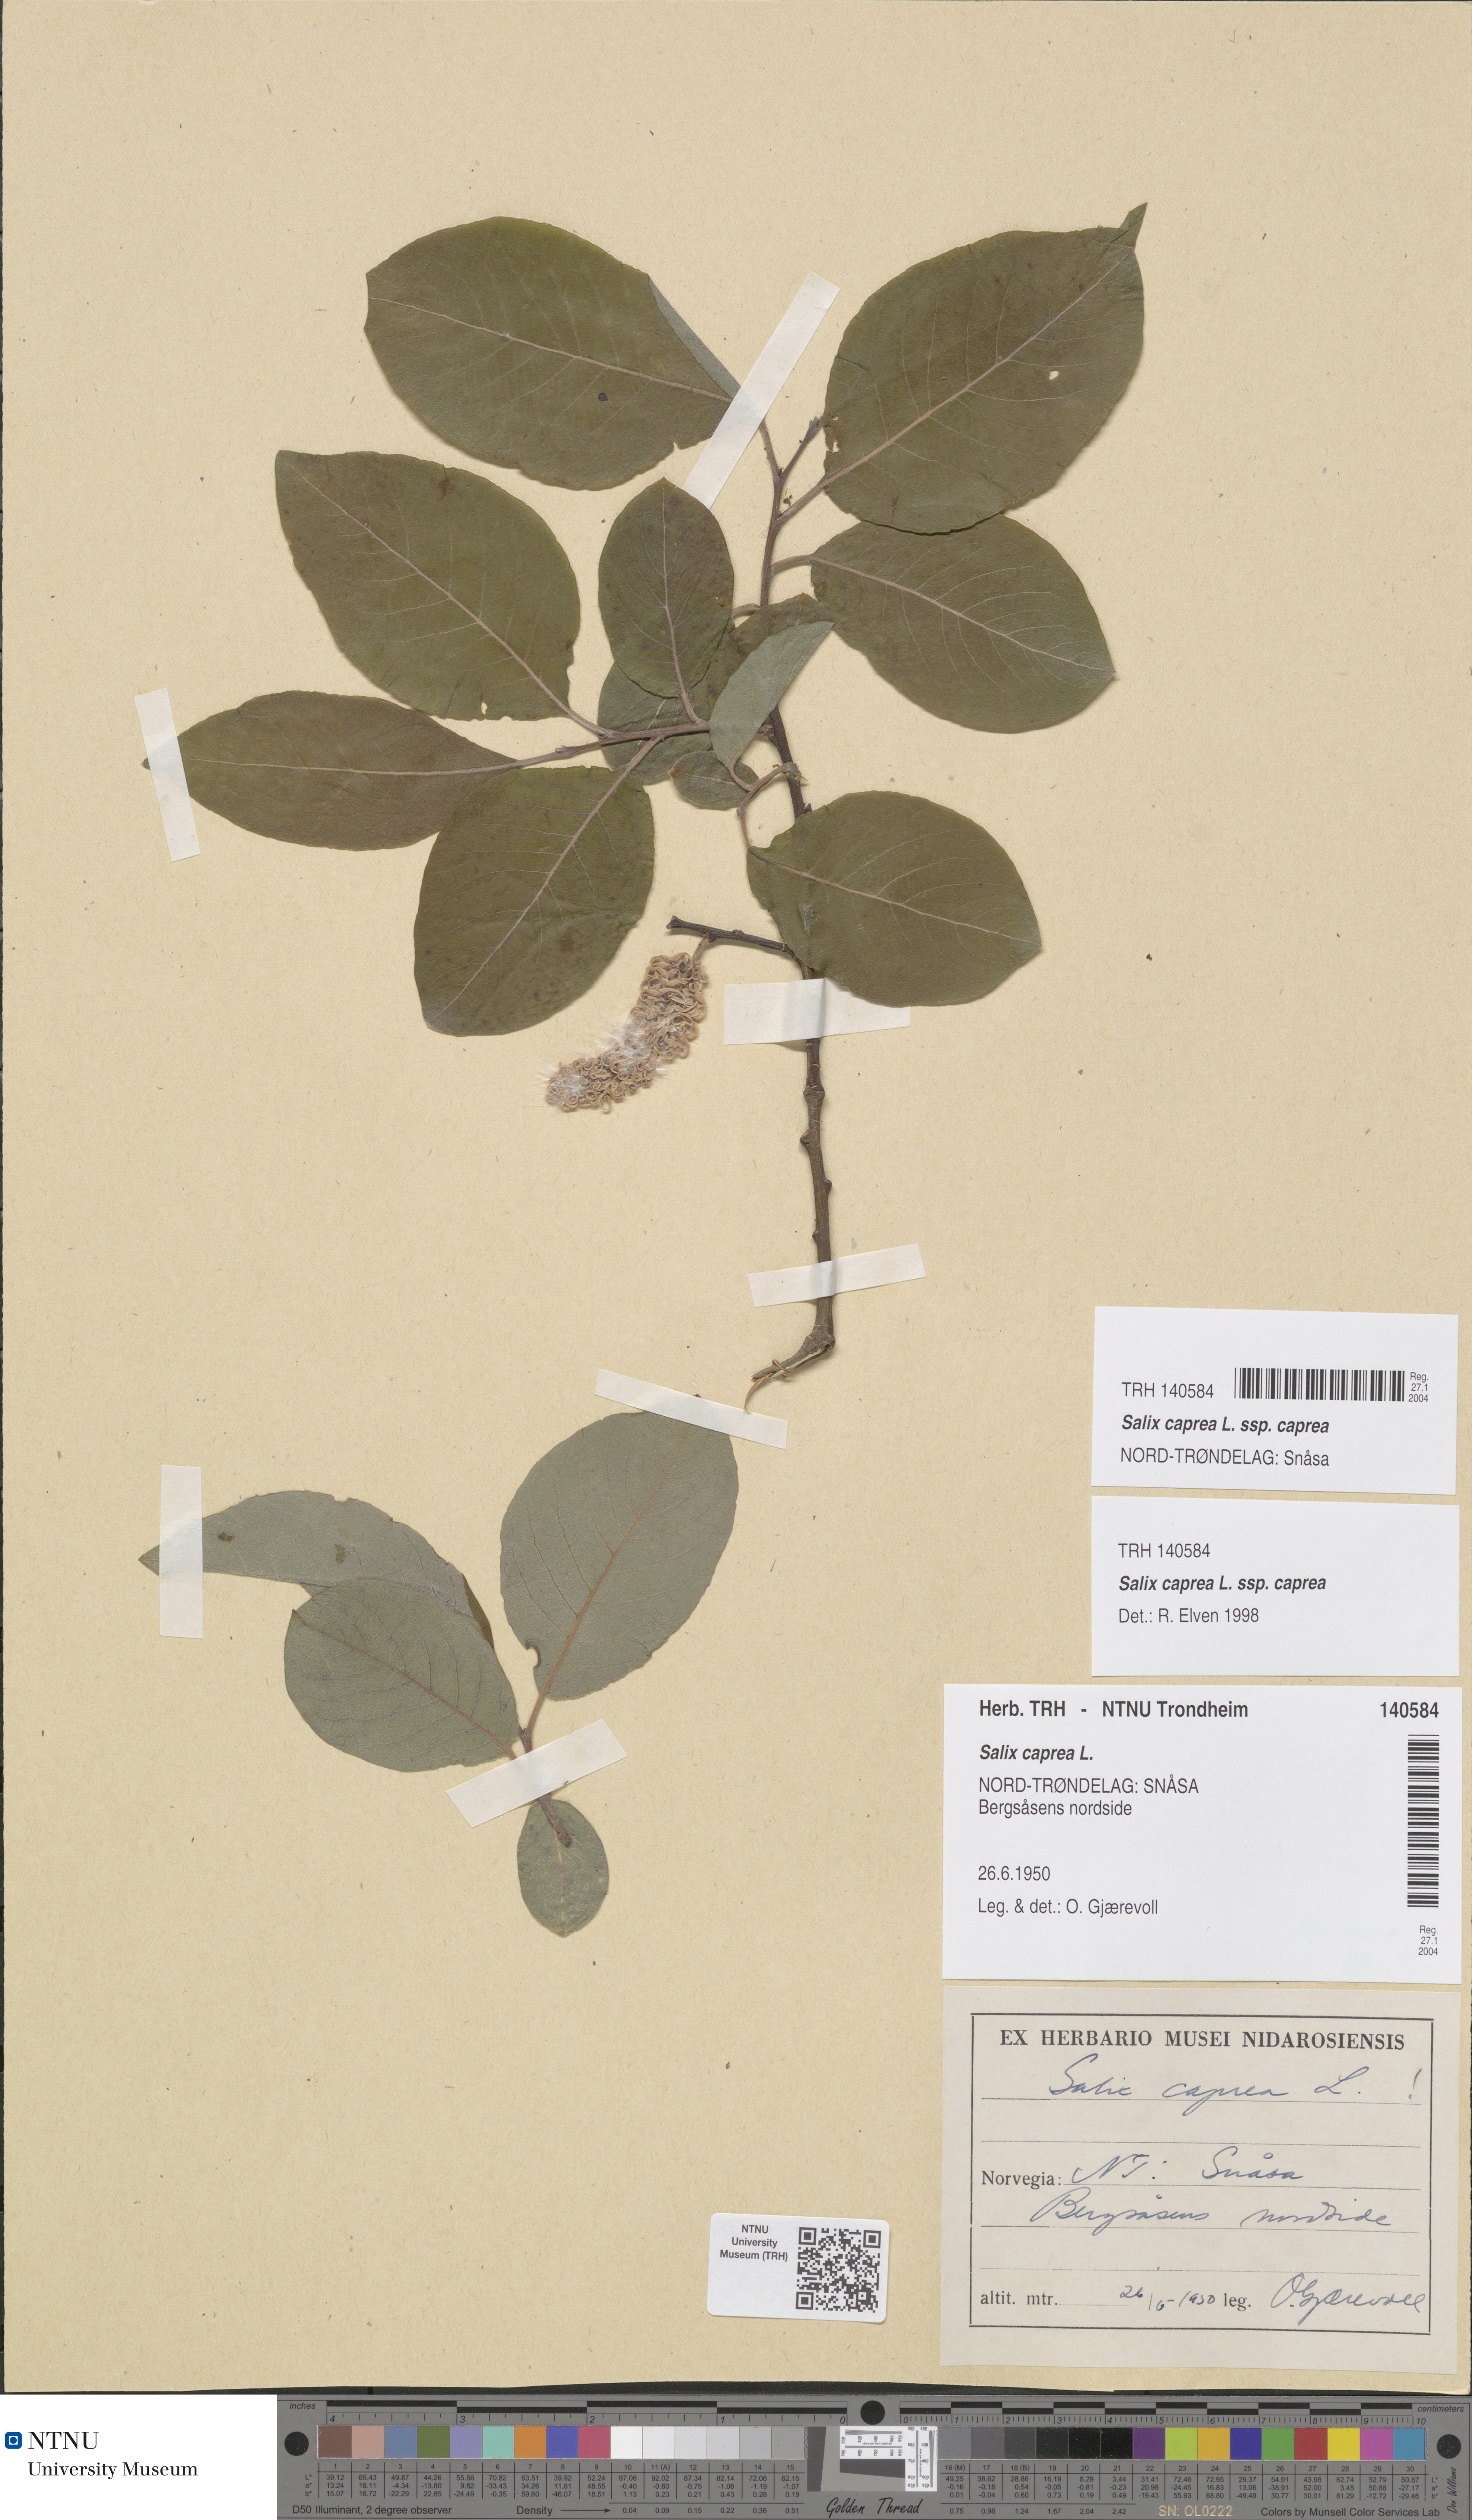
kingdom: Plantae
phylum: Tracheophyta
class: Magnoliopsida
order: Malpighiales
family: Salicaceae
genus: Salix
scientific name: Salix caprea
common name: Goat willow
